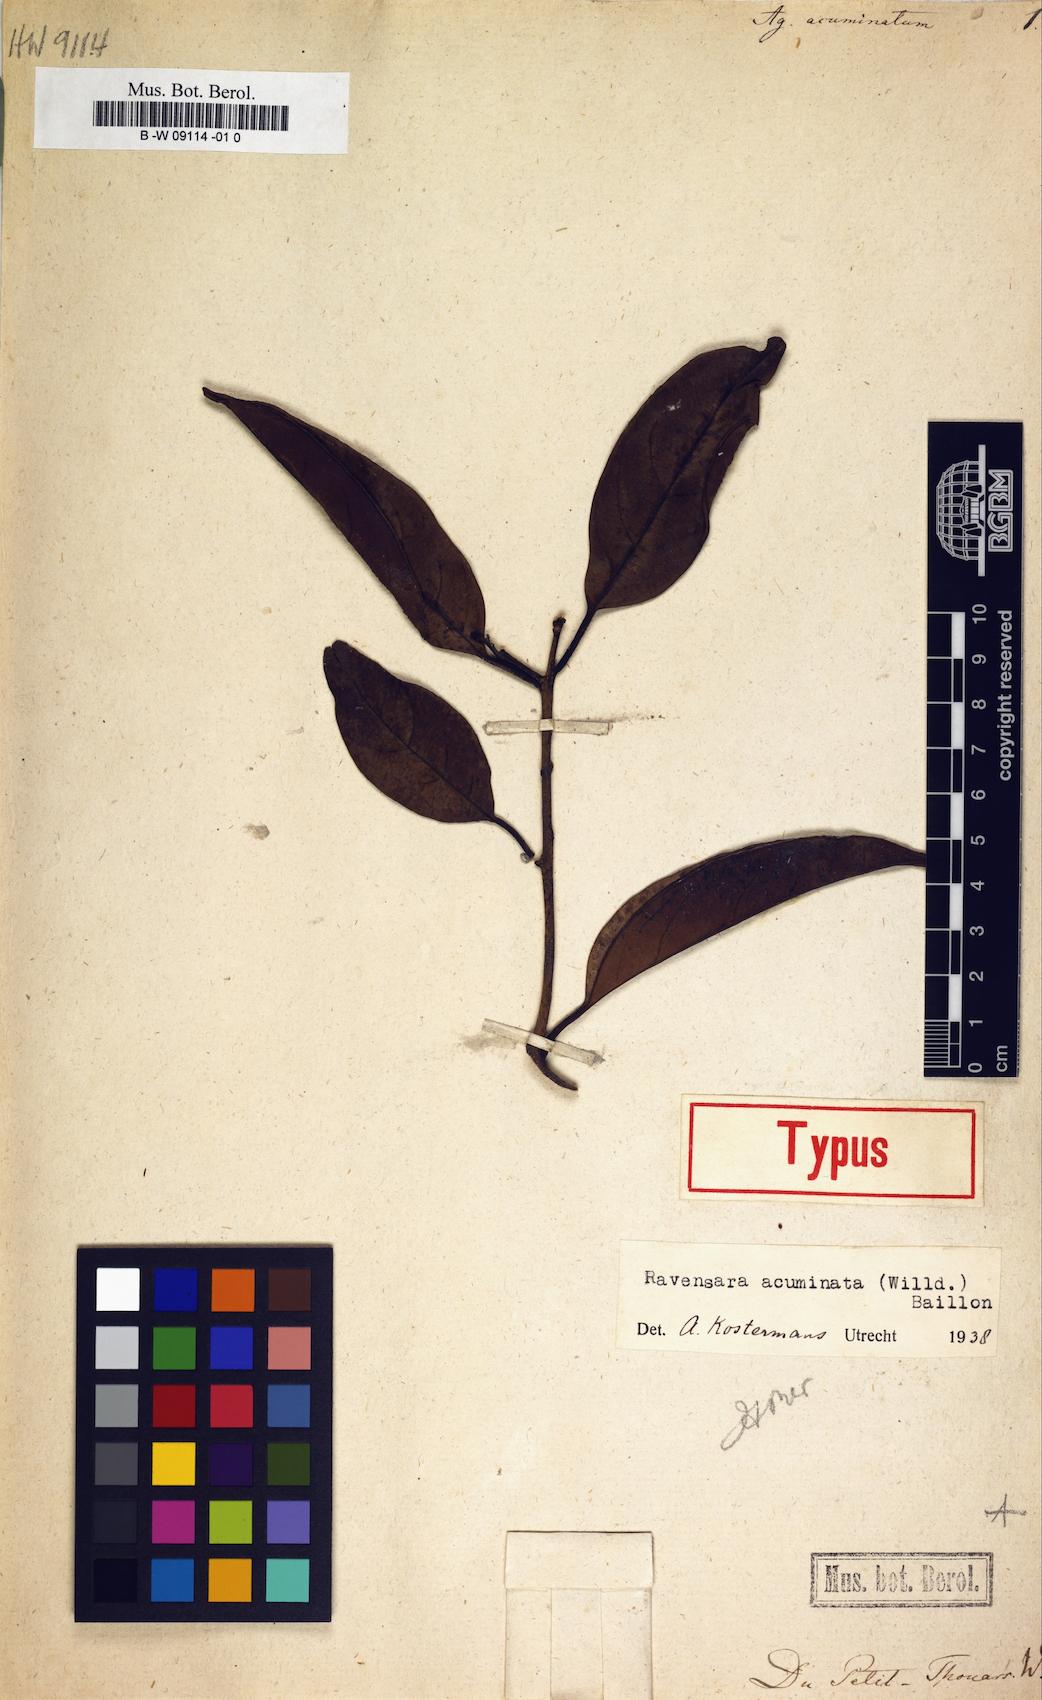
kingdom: Plantae
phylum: Tracheophyta
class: Magnoliopsida
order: Laurales
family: Lauraceae
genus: Cryptocarya
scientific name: Cryptocarya litoralis
